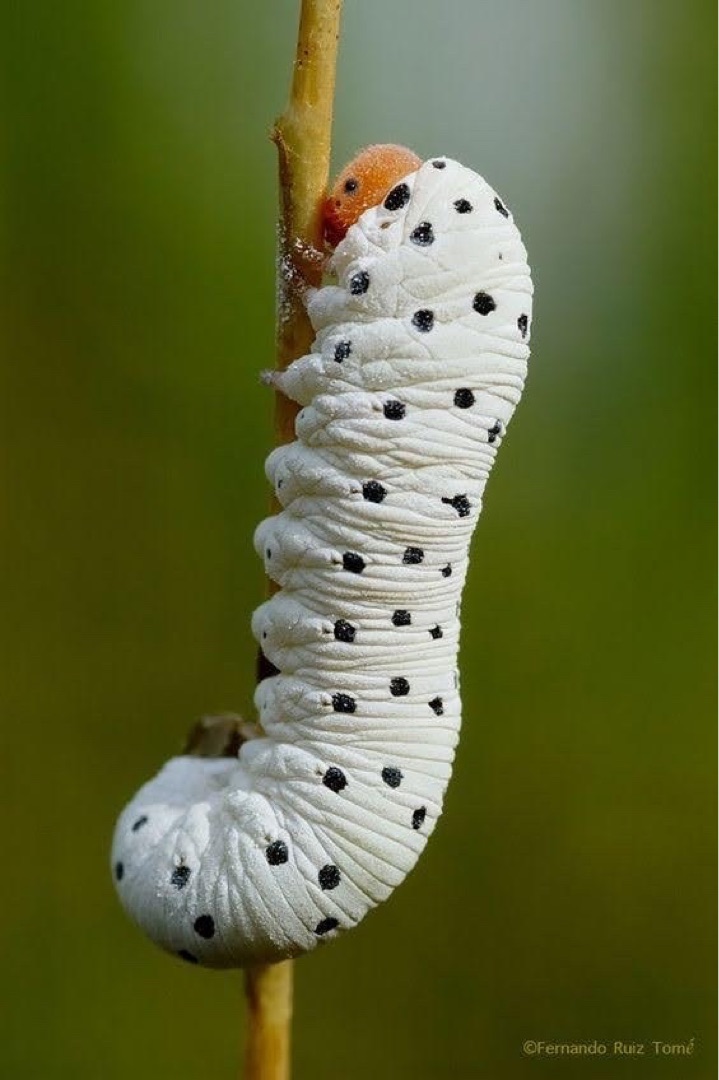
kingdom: Animalia
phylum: Chordata
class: Aves
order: Passeriformes
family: Turdidae
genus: Turdus
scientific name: Turdus merula
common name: Solsort
